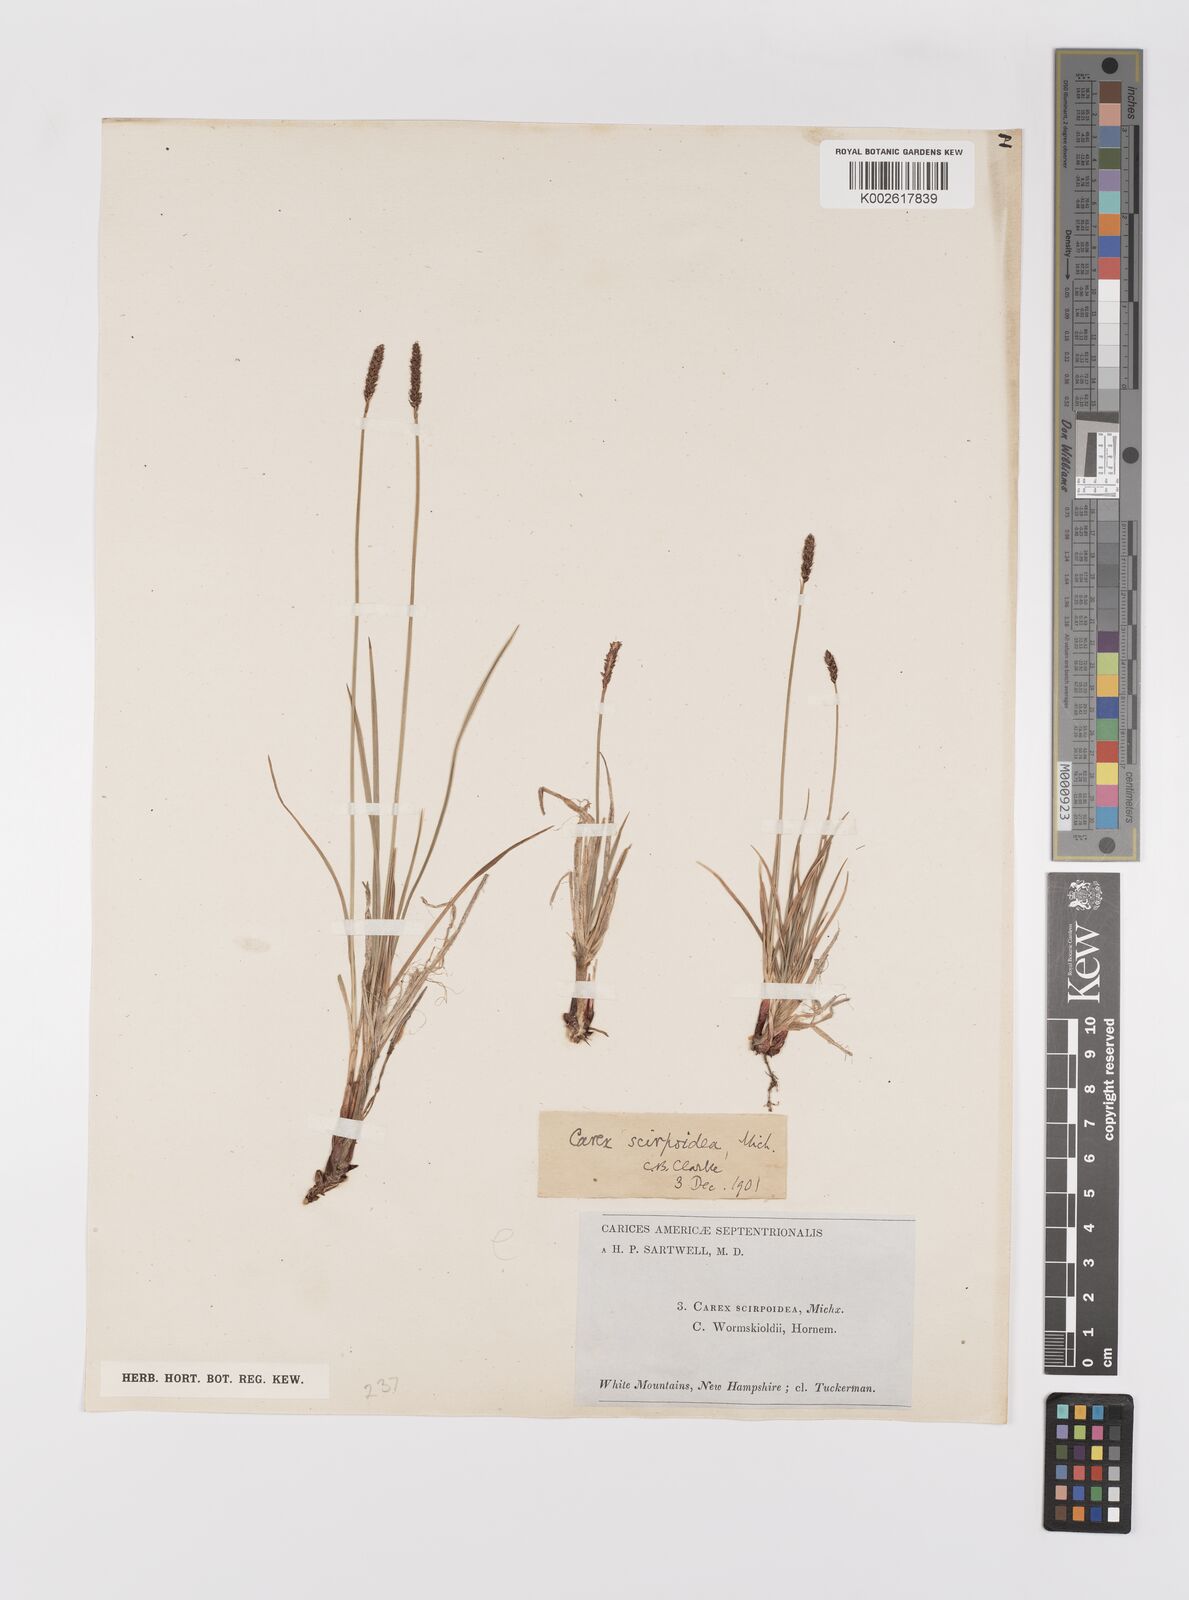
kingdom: Plantae
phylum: Tracheophyta
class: Liliopsida
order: Poales
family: Cyperaceae
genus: Carex
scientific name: Carex scirpoidea
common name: Canada single-spike sedge
